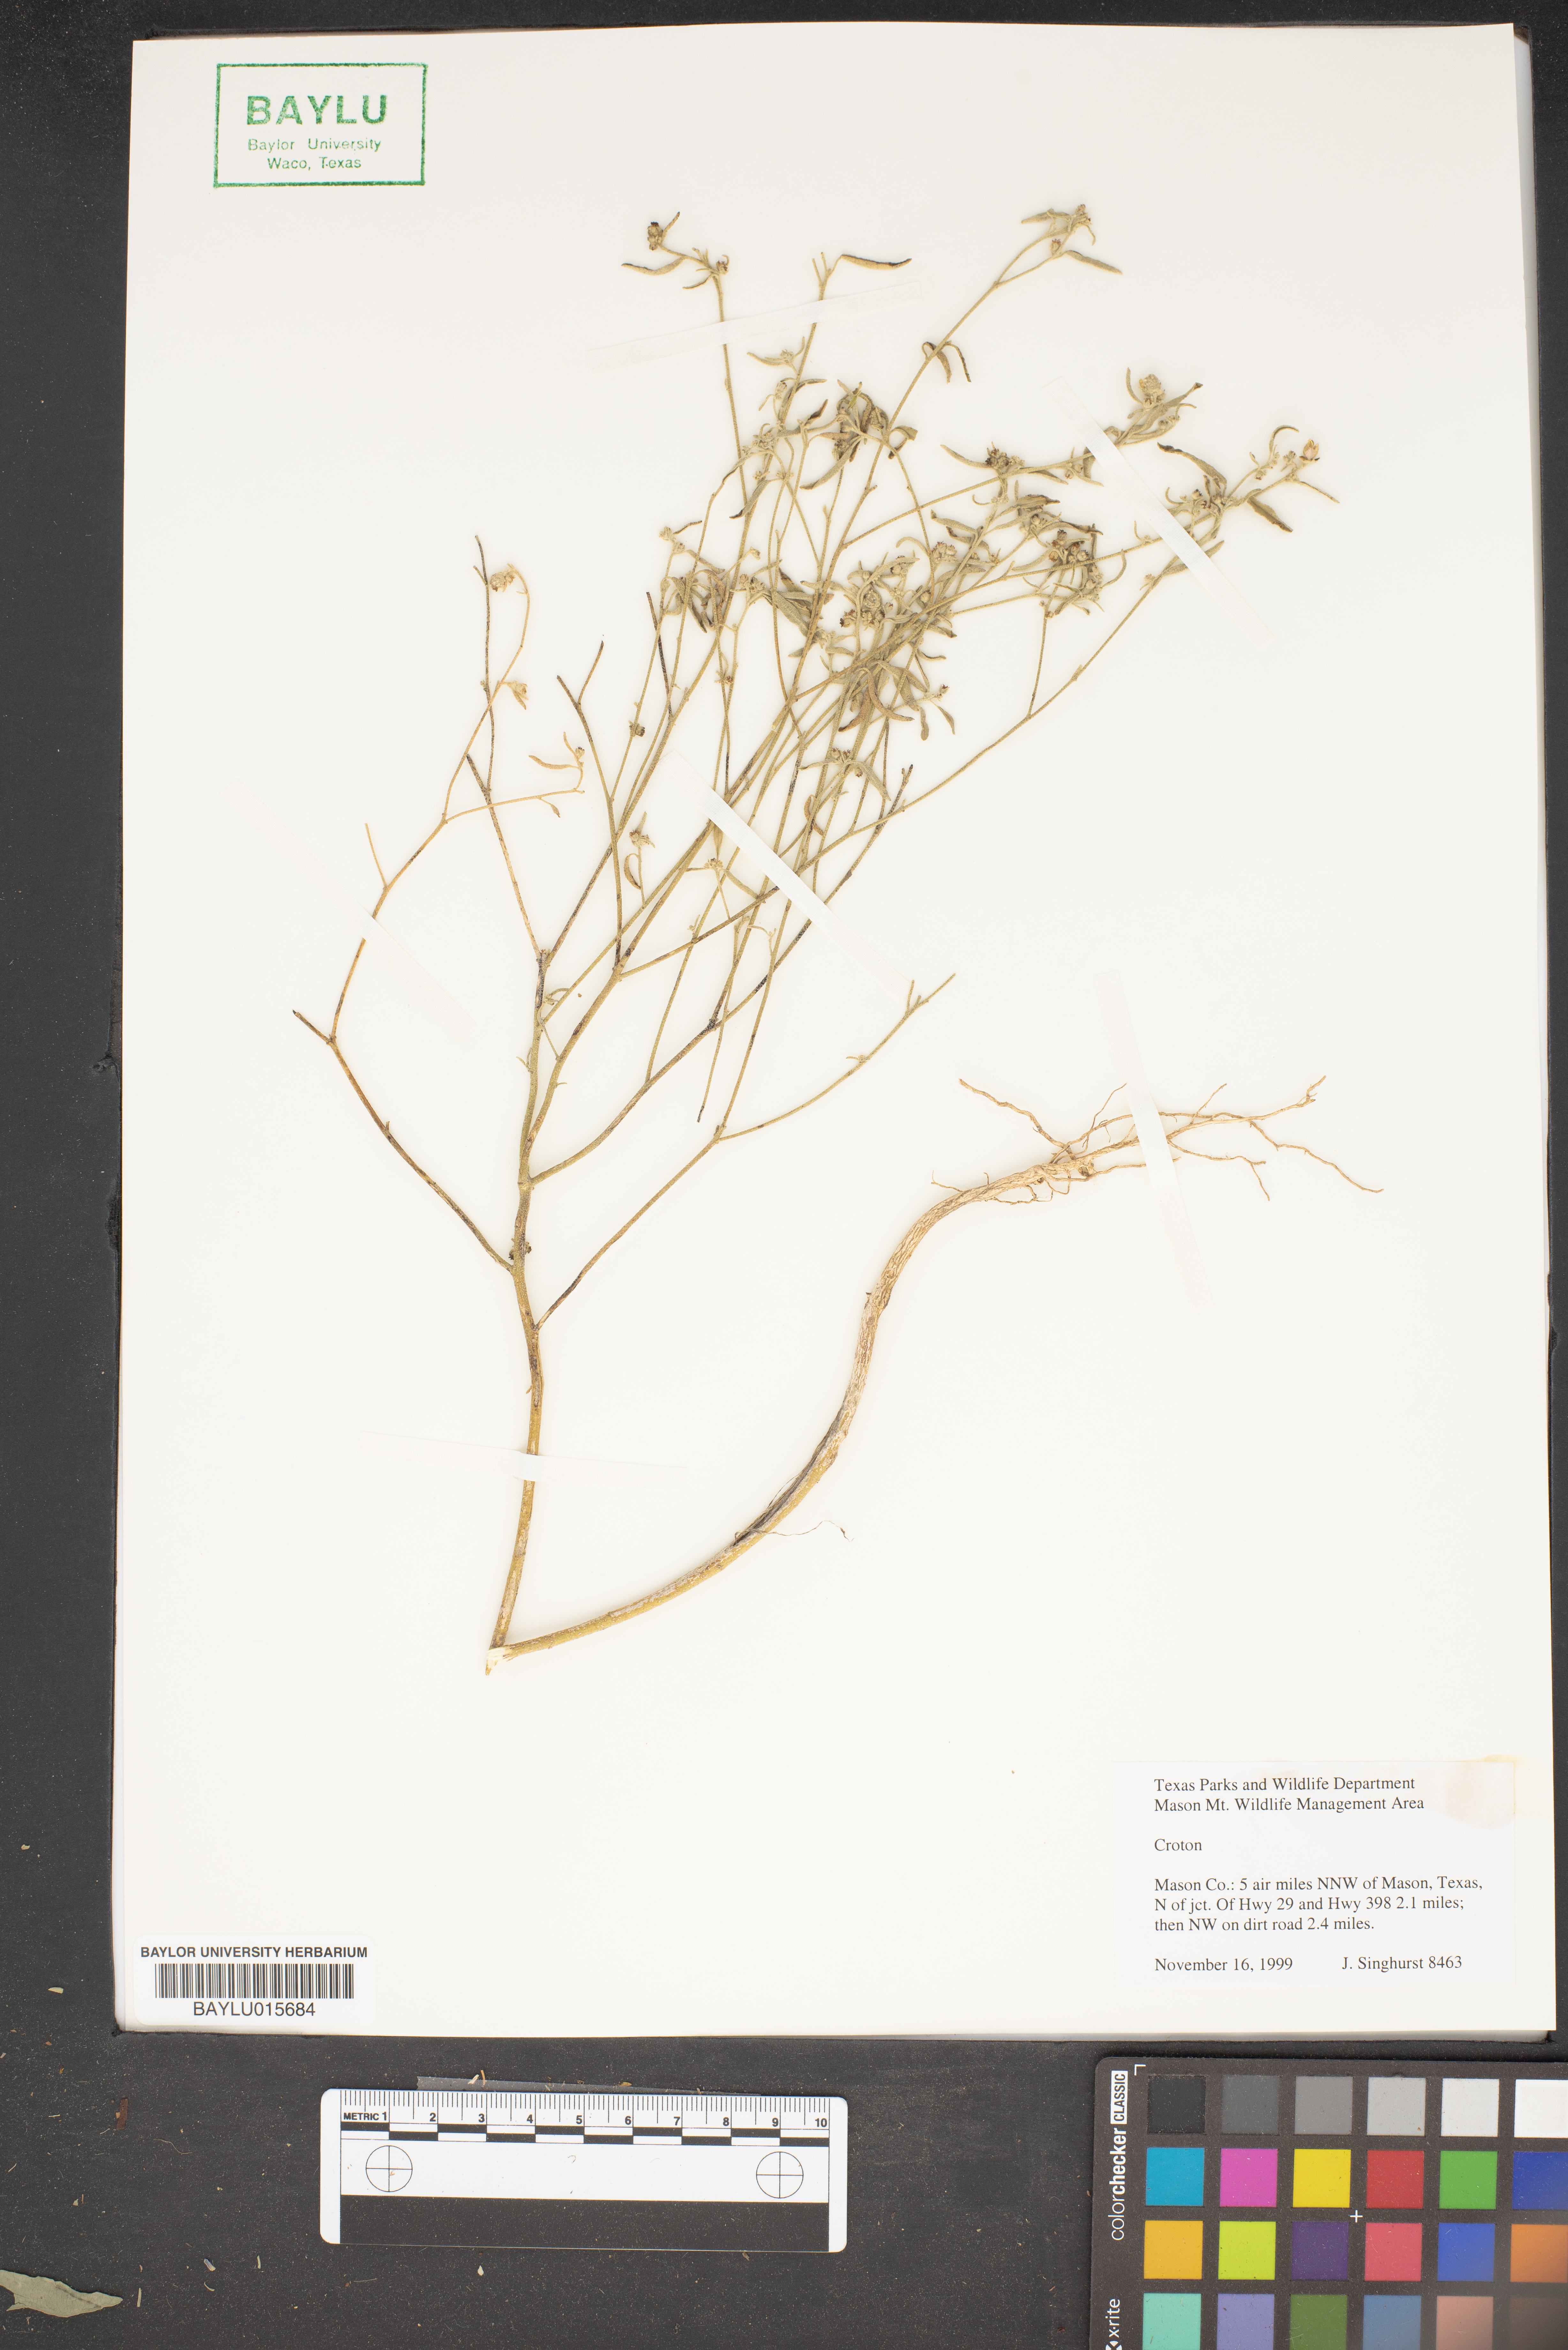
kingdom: Plantae
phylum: Tracheophyta
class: Magnoliopsida
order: Malpighiales
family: Euphorbiaceae
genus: Croton
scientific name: Croton
